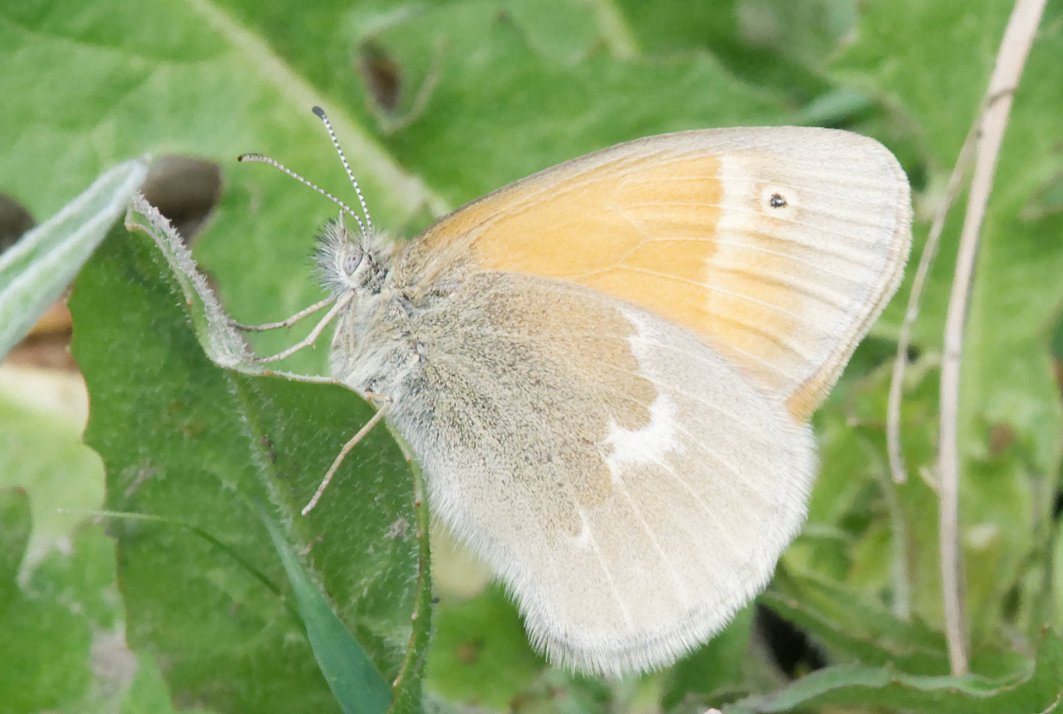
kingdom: Animalia
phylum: Arthropoda
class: Insecta
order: Lepidoptera
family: Nymphalidae
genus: Coenonympha
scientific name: Coenonympha tullia
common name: Large Heath
